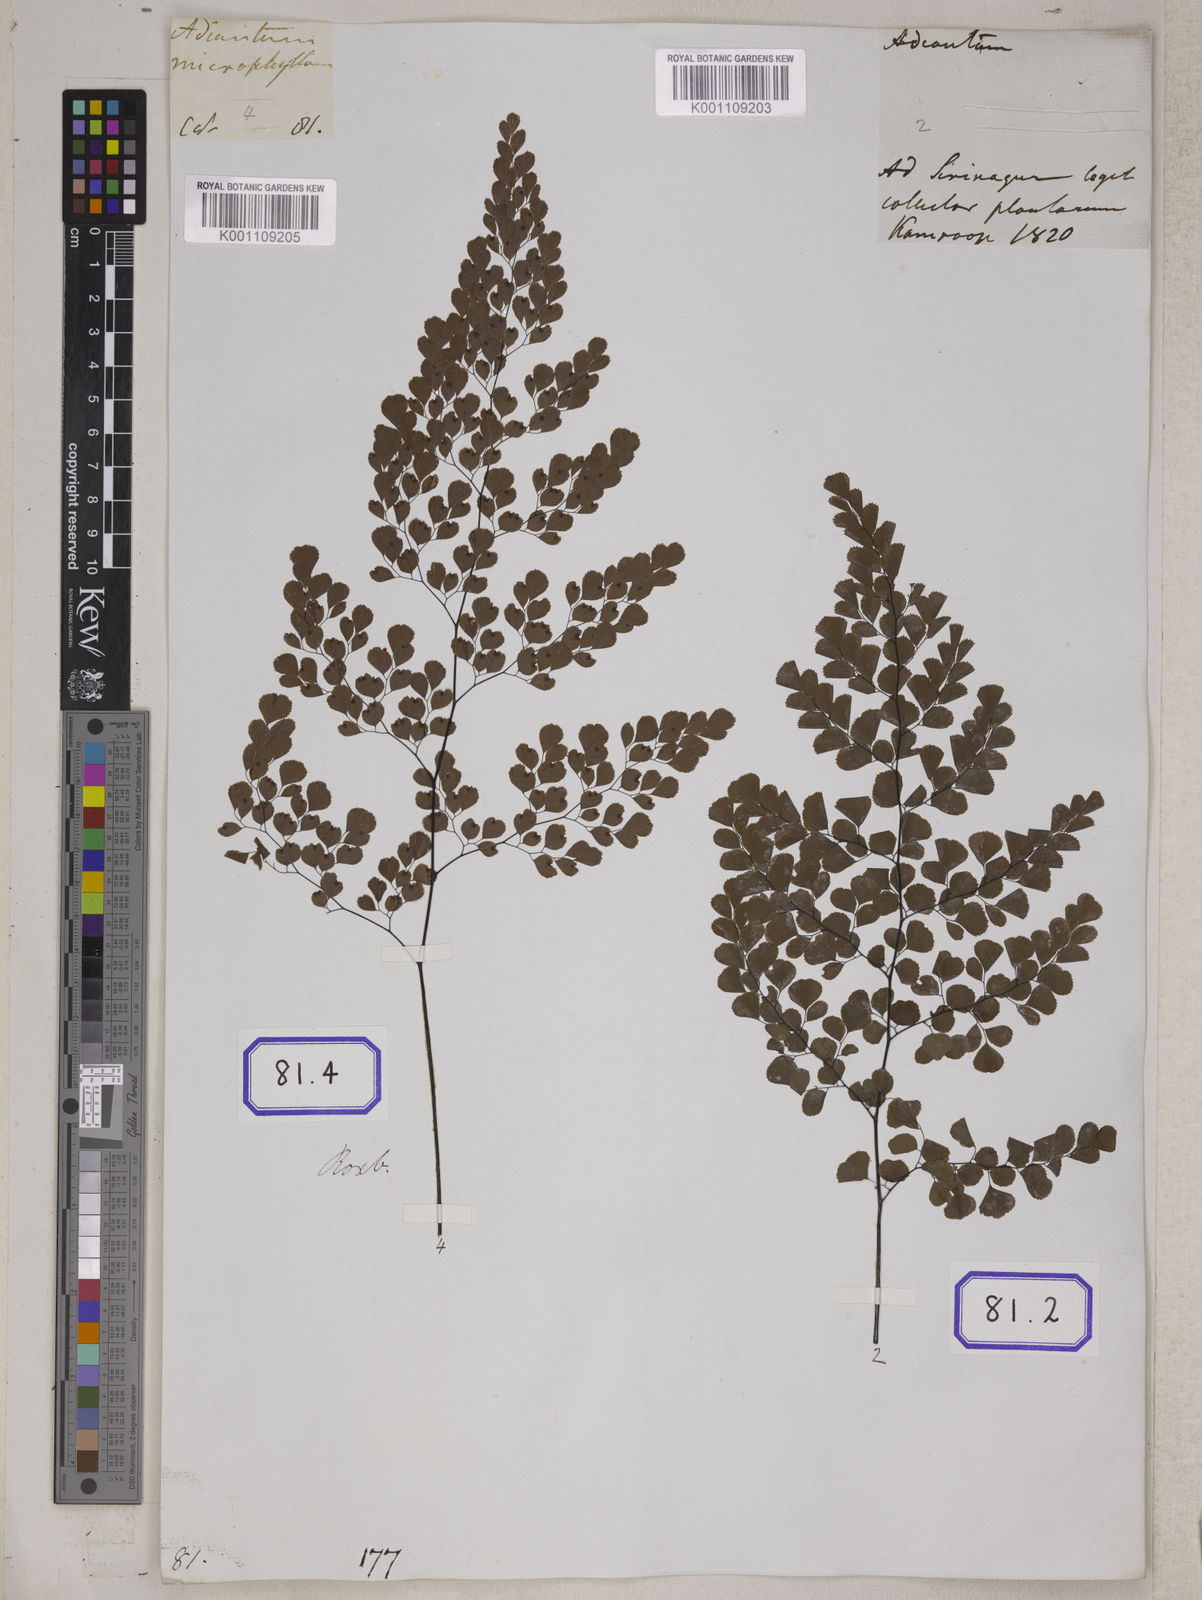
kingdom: Plantae
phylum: Tracheophyta
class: Polypodiopsida
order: Polypodiales
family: Pteridaceae
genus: Adiantum
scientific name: Adiantum venustum
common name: Evergreen maidenhair
